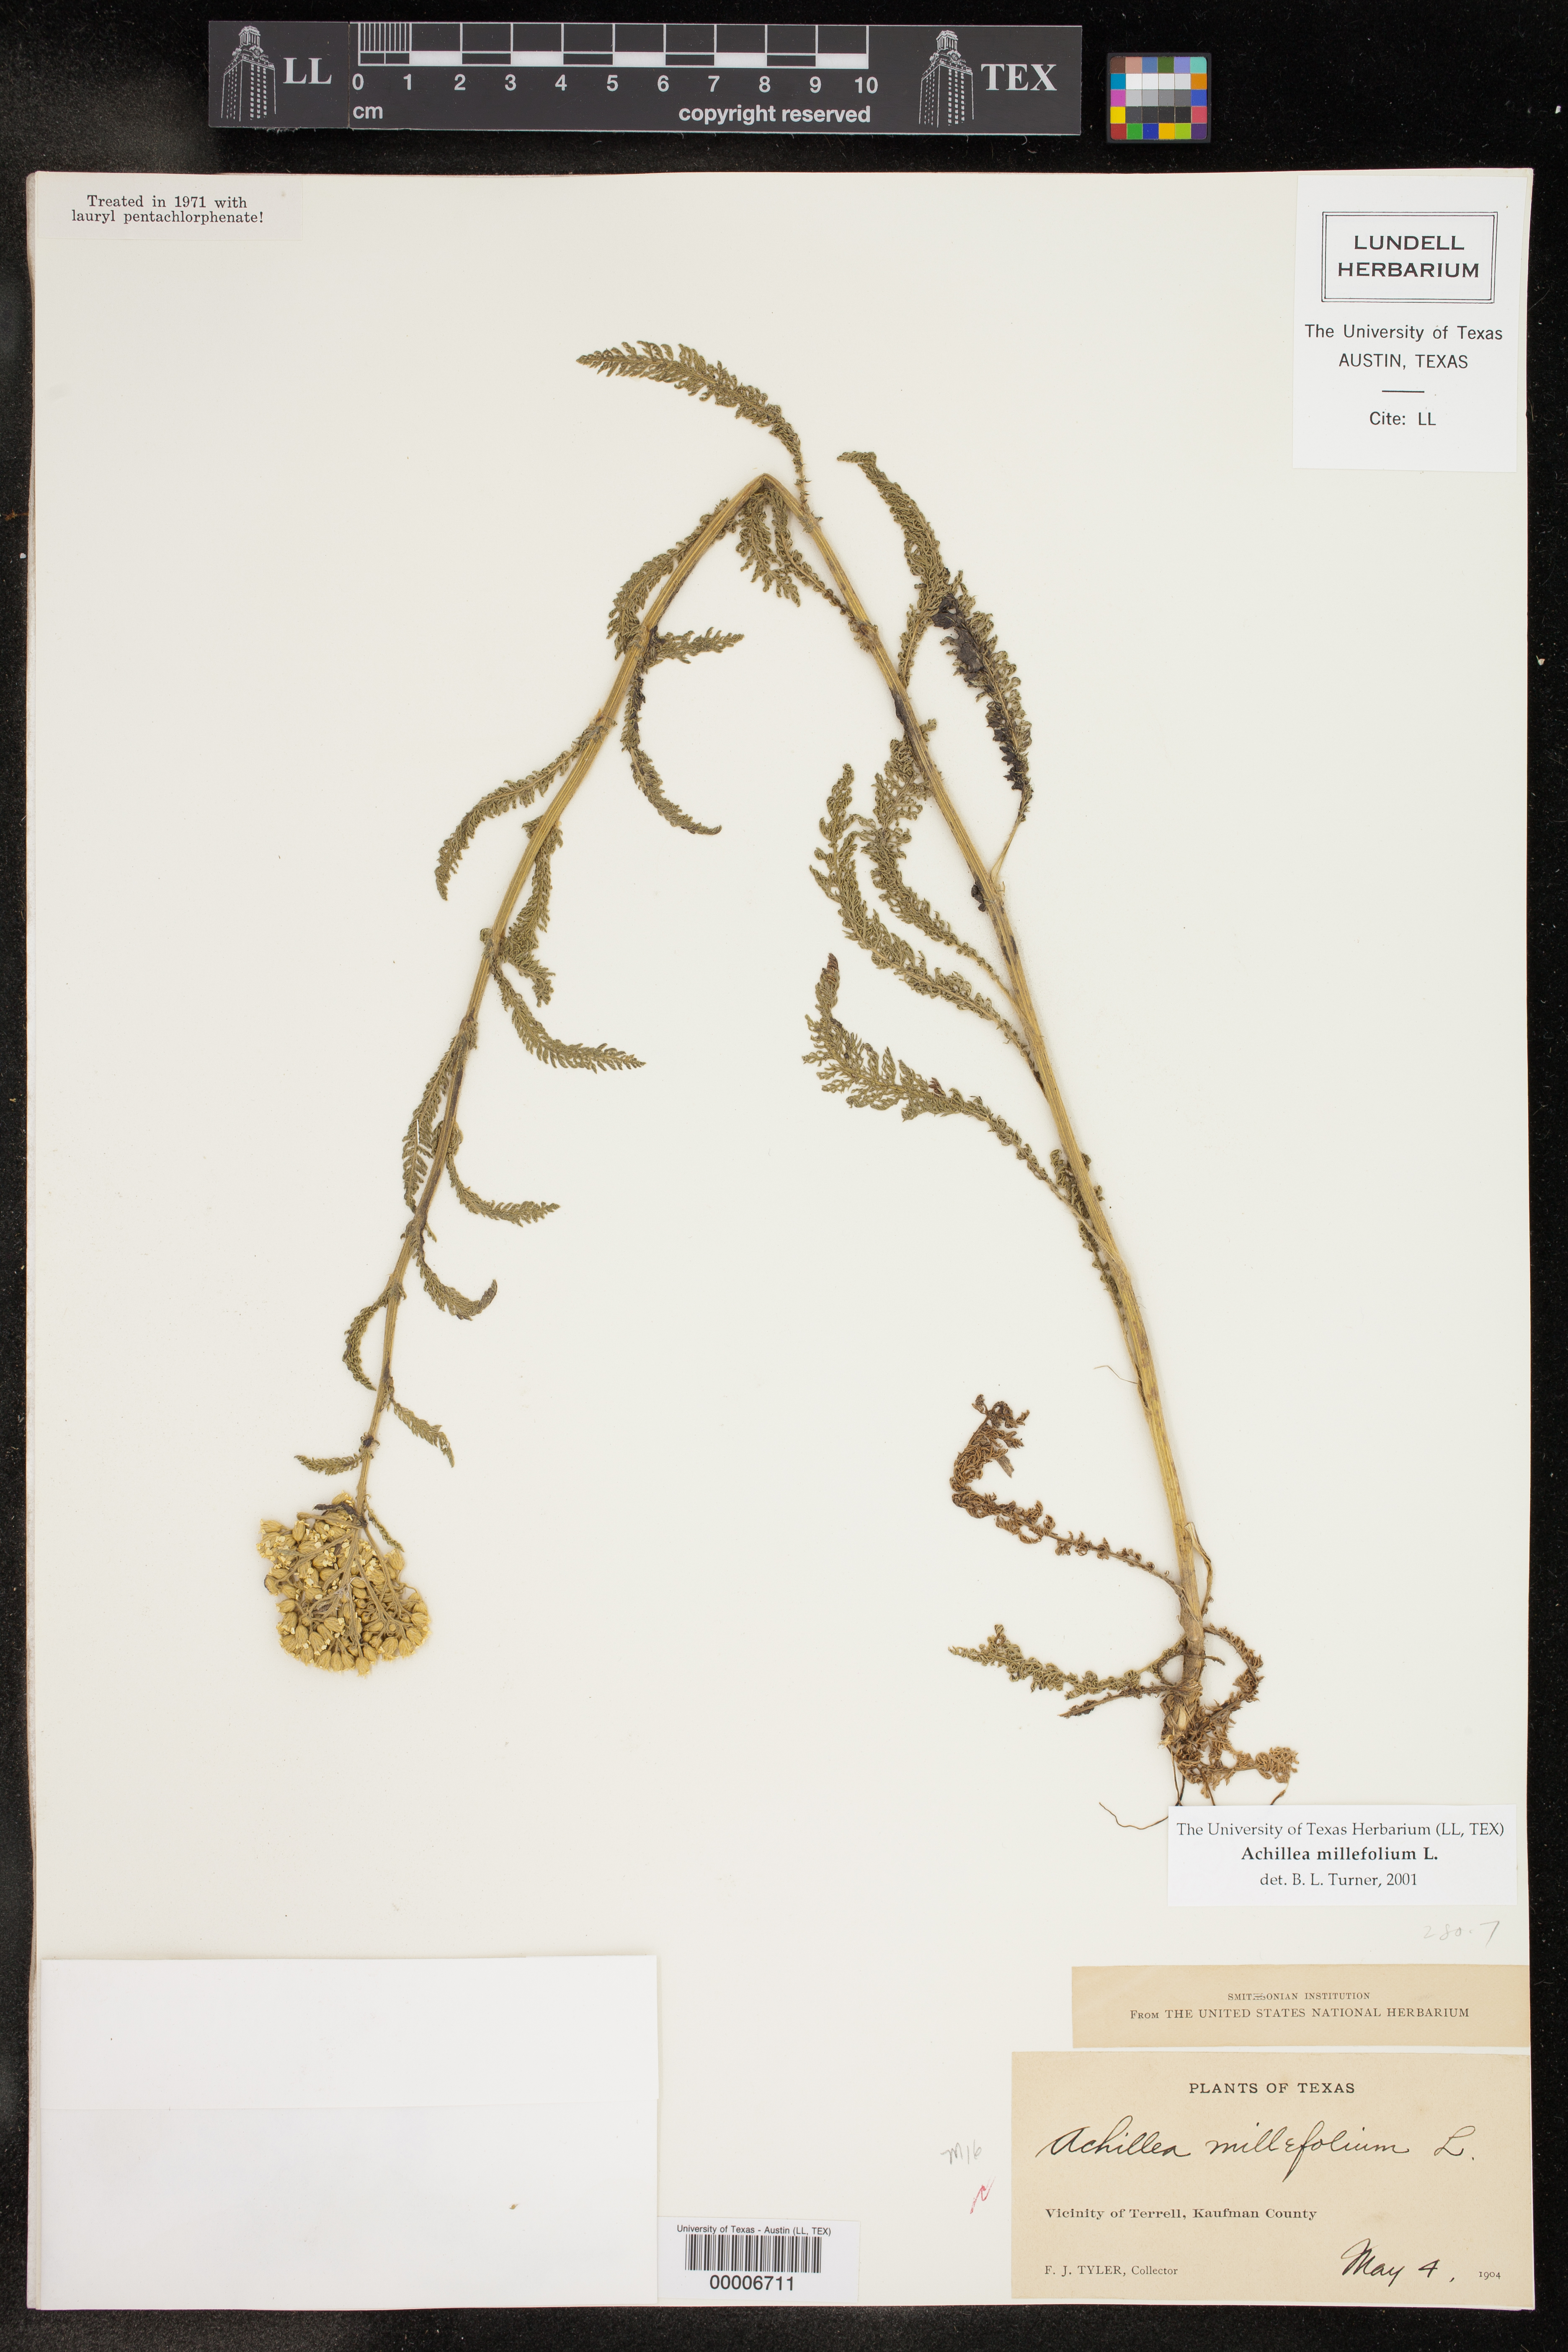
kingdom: Plantae
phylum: Tracheophyta
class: Magnoliopsida
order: Asterales
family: Asteraceae
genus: Achillea
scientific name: Achillea millefolium
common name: Yarrow
